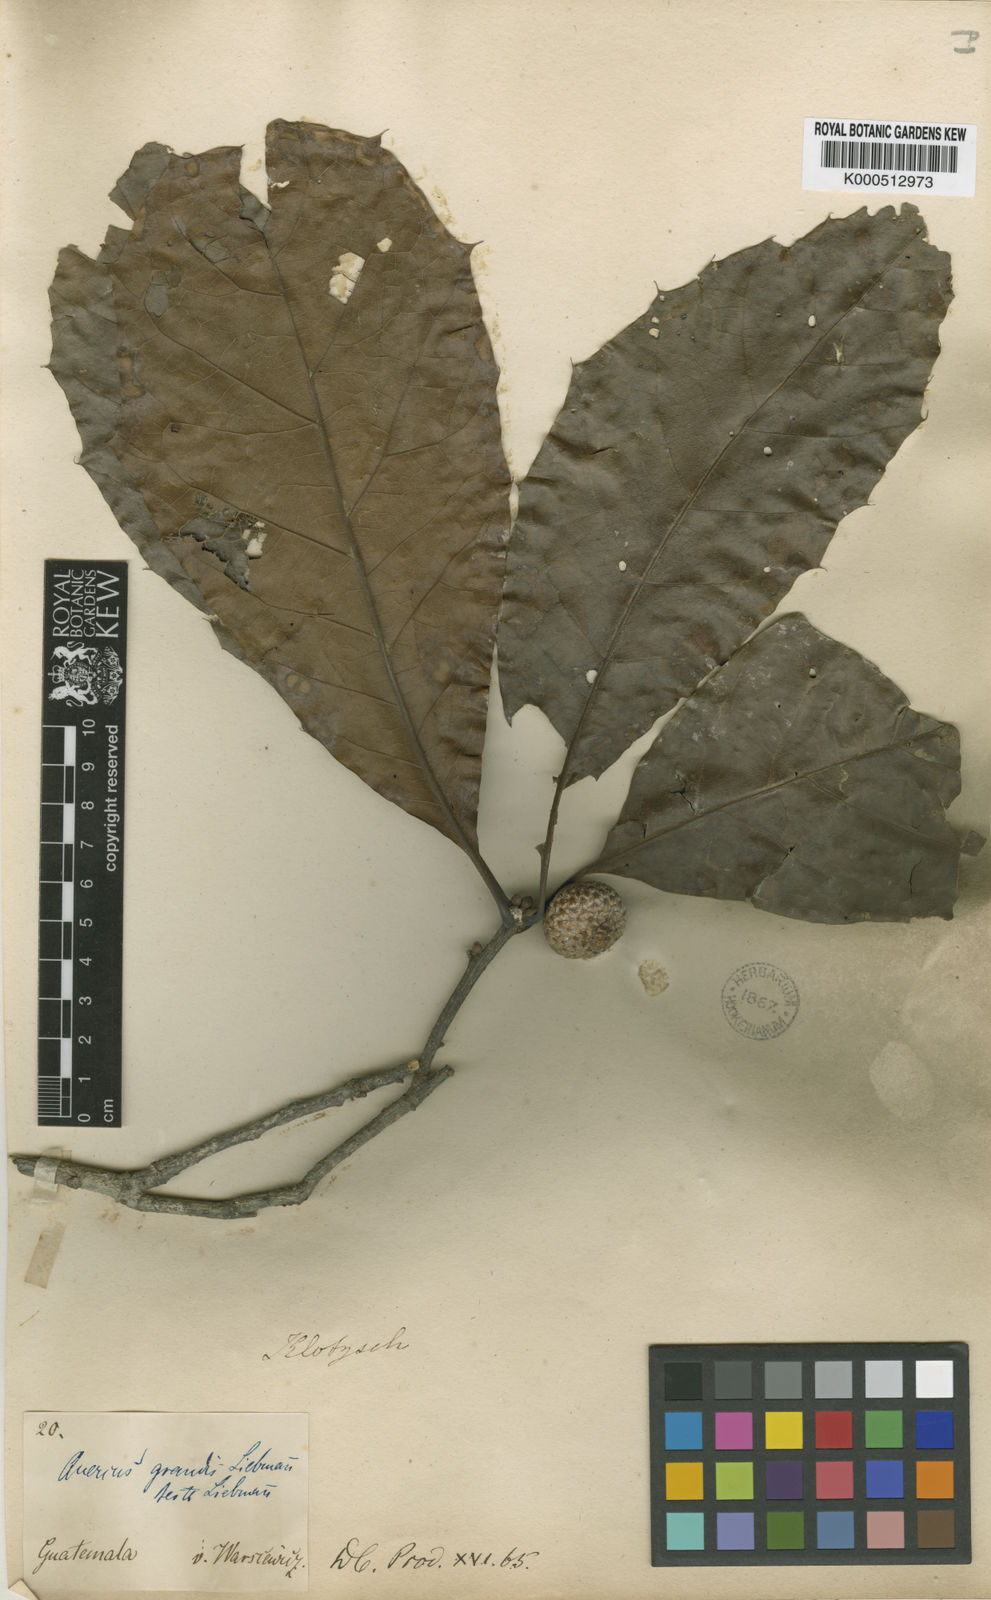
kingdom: Plantae
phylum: Tracheophyta
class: Magnoliopsida
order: Fagales
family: Fagaceae
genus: Quercus
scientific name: Quercus skinneri
